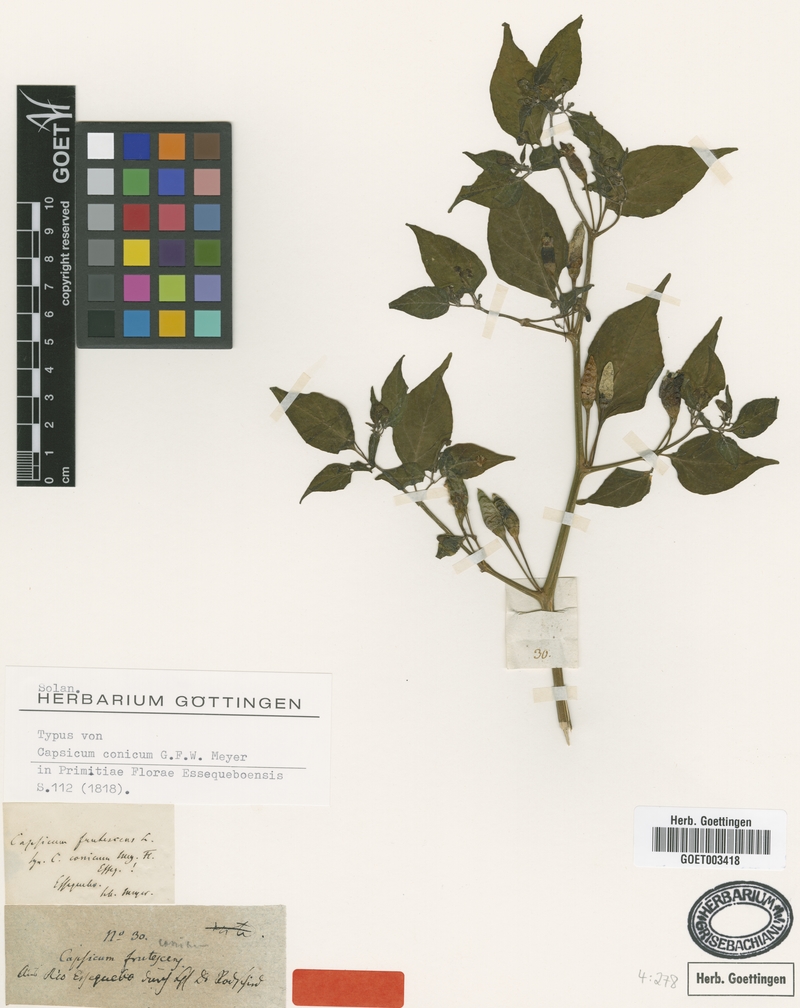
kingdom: Plantae
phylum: Tracheophyta
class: Magnoliopsida
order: Solanales
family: Solanaceae
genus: Capsicum
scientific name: Capsicum frutescens
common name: Bird pepper
